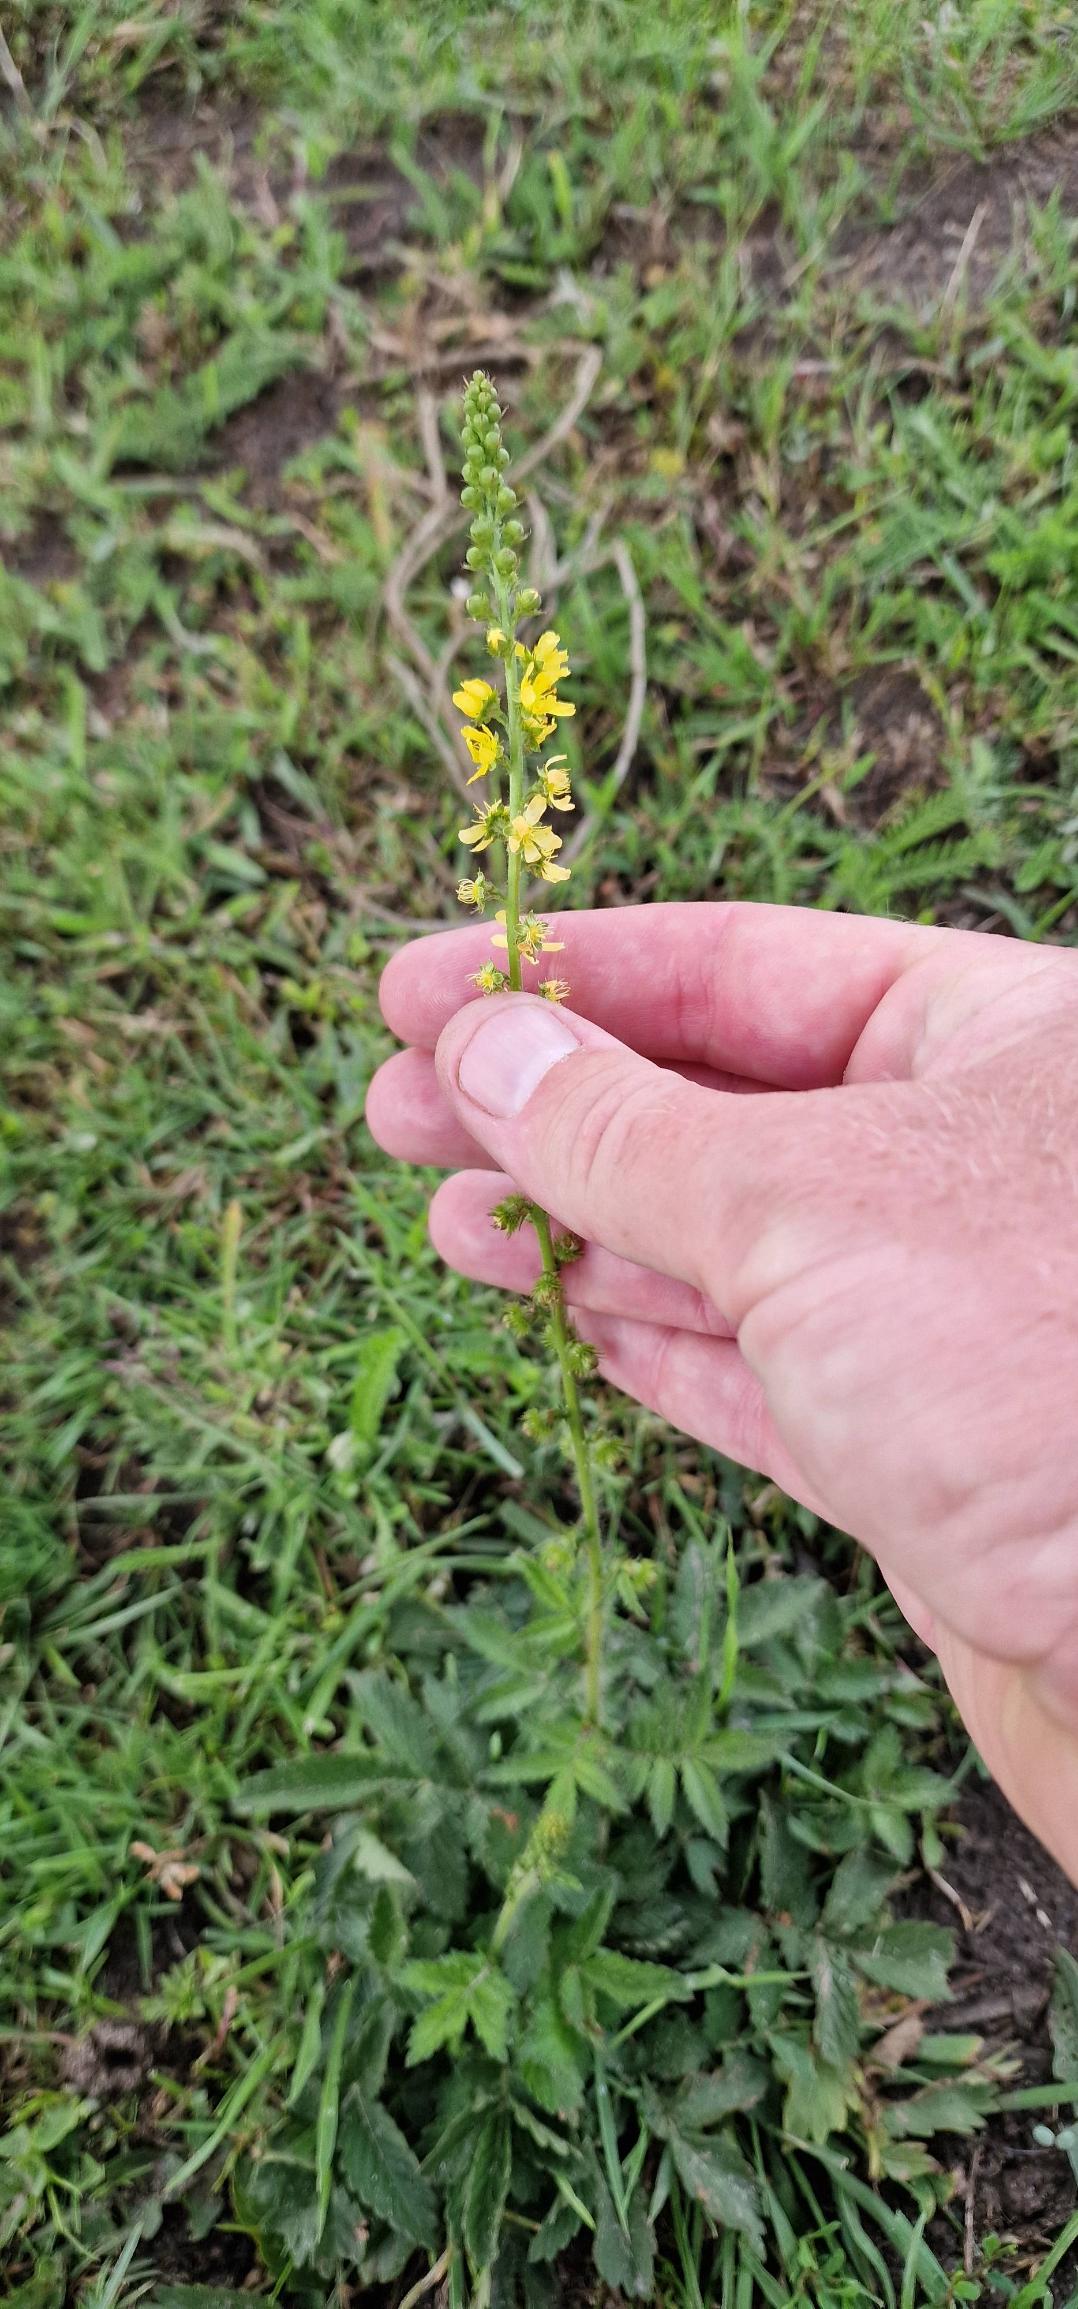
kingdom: Plantae
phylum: Tracheophyta
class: Magnoliopsida
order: Rosales
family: Rosaceae
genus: Agrimonia
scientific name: Agrimonia eupatoria
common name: Almindelig agermåne
